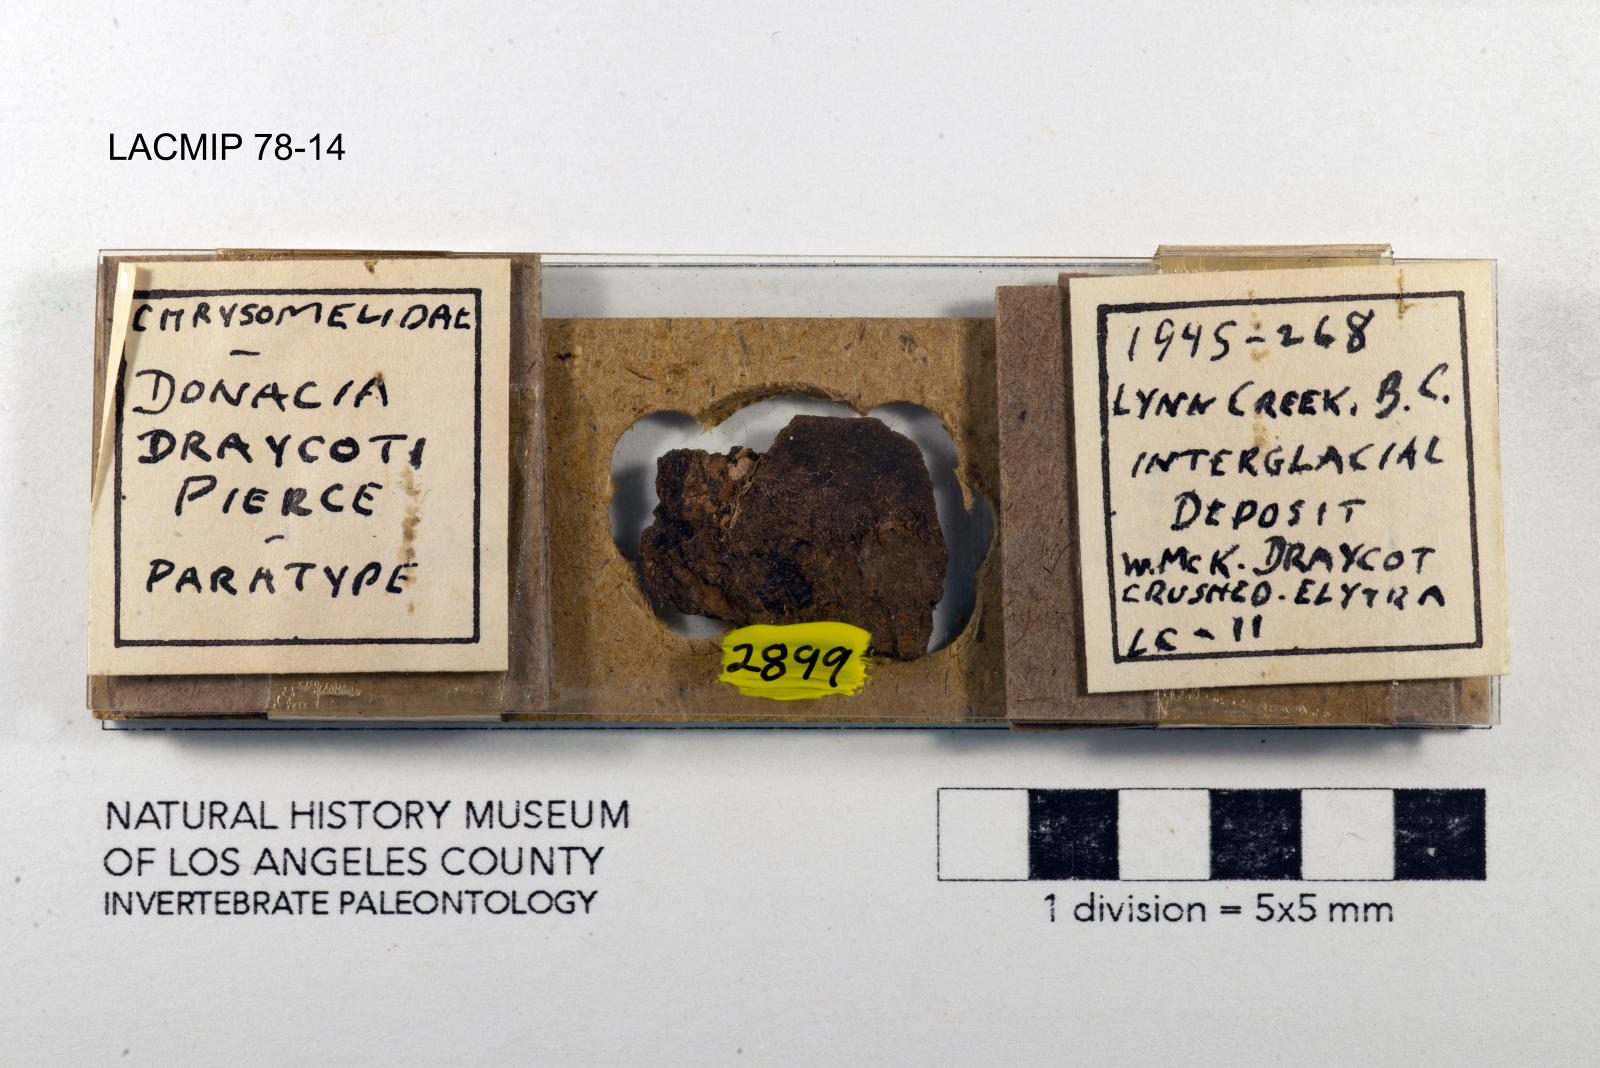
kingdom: Animalia
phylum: Arthropoda
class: Insecta
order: Coleoptera
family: Chrysomelidae
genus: Donacia
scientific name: Donacia draycoti
